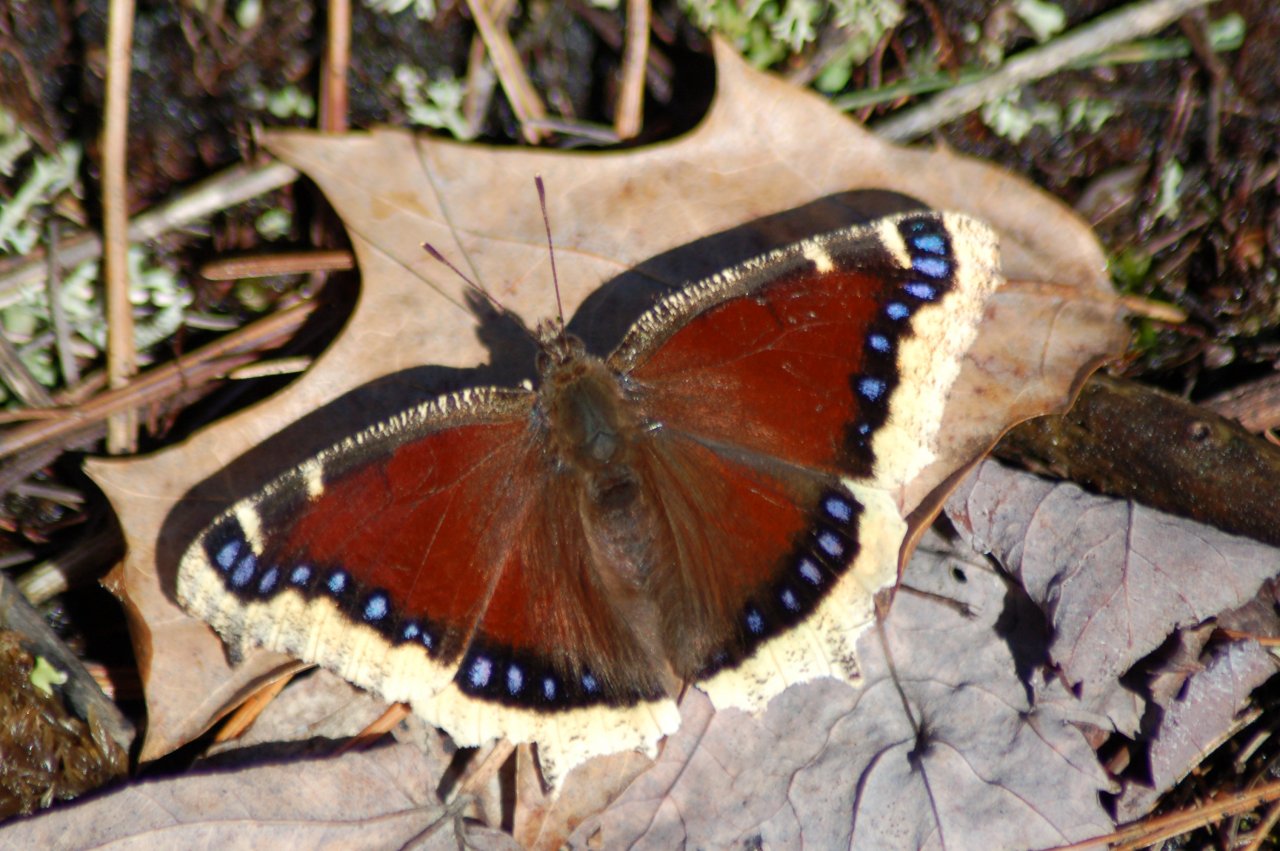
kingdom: Animalia
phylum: Arthropoda
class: Insecta
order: Lepidoptera
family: Nymphalidae
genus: Nymphalis
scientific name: Nymphalis antiopa
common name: Mourning Cloak
